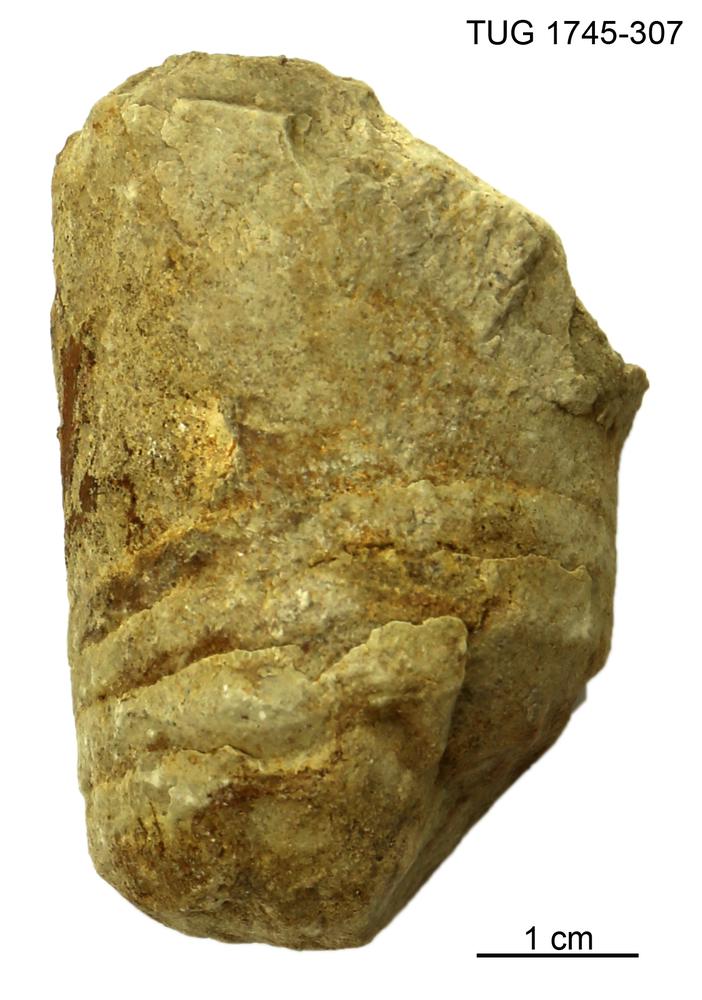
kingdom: Animalia
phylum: Mollusca
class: Cephalopoda
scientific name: Cephalopoda
